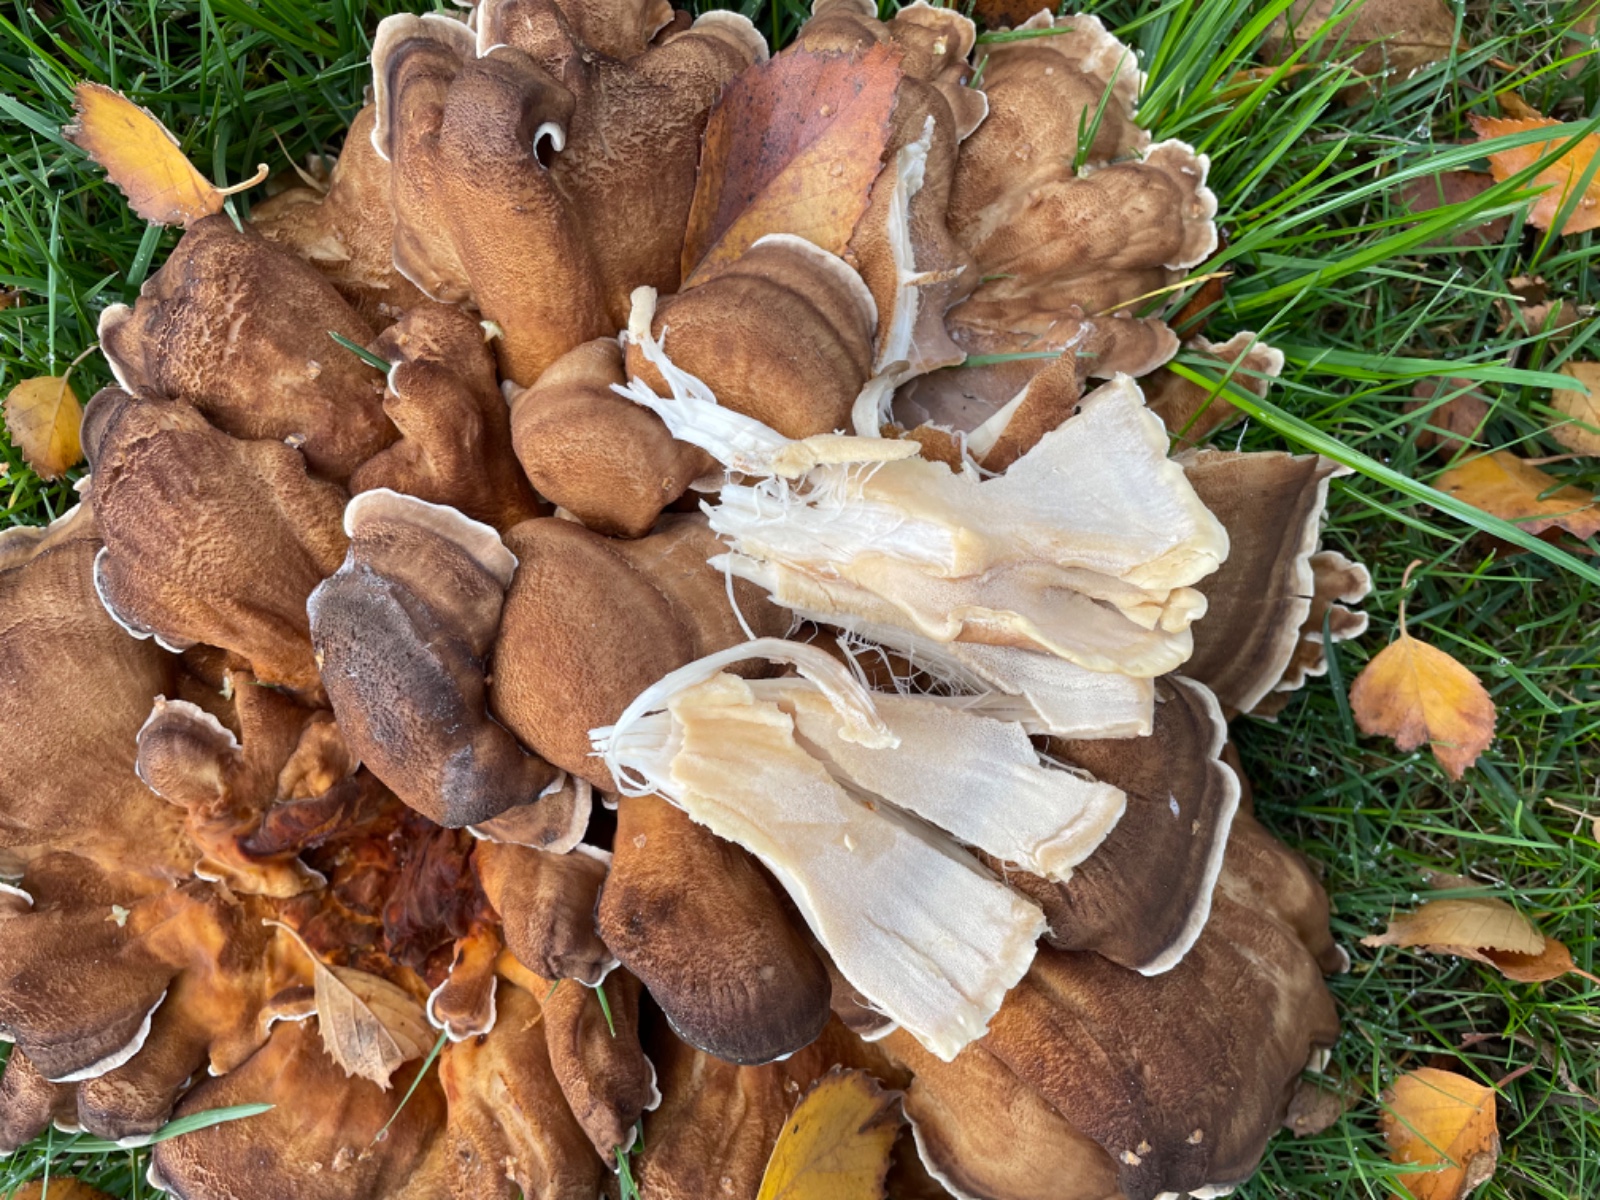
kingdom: Fungi
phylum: Basidiomycota
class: Agaricomycetes
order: Polyporales
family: Meripilaceae
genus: Meripilus
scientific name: Meripilus giganteus
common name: kæmpeporesvamp
